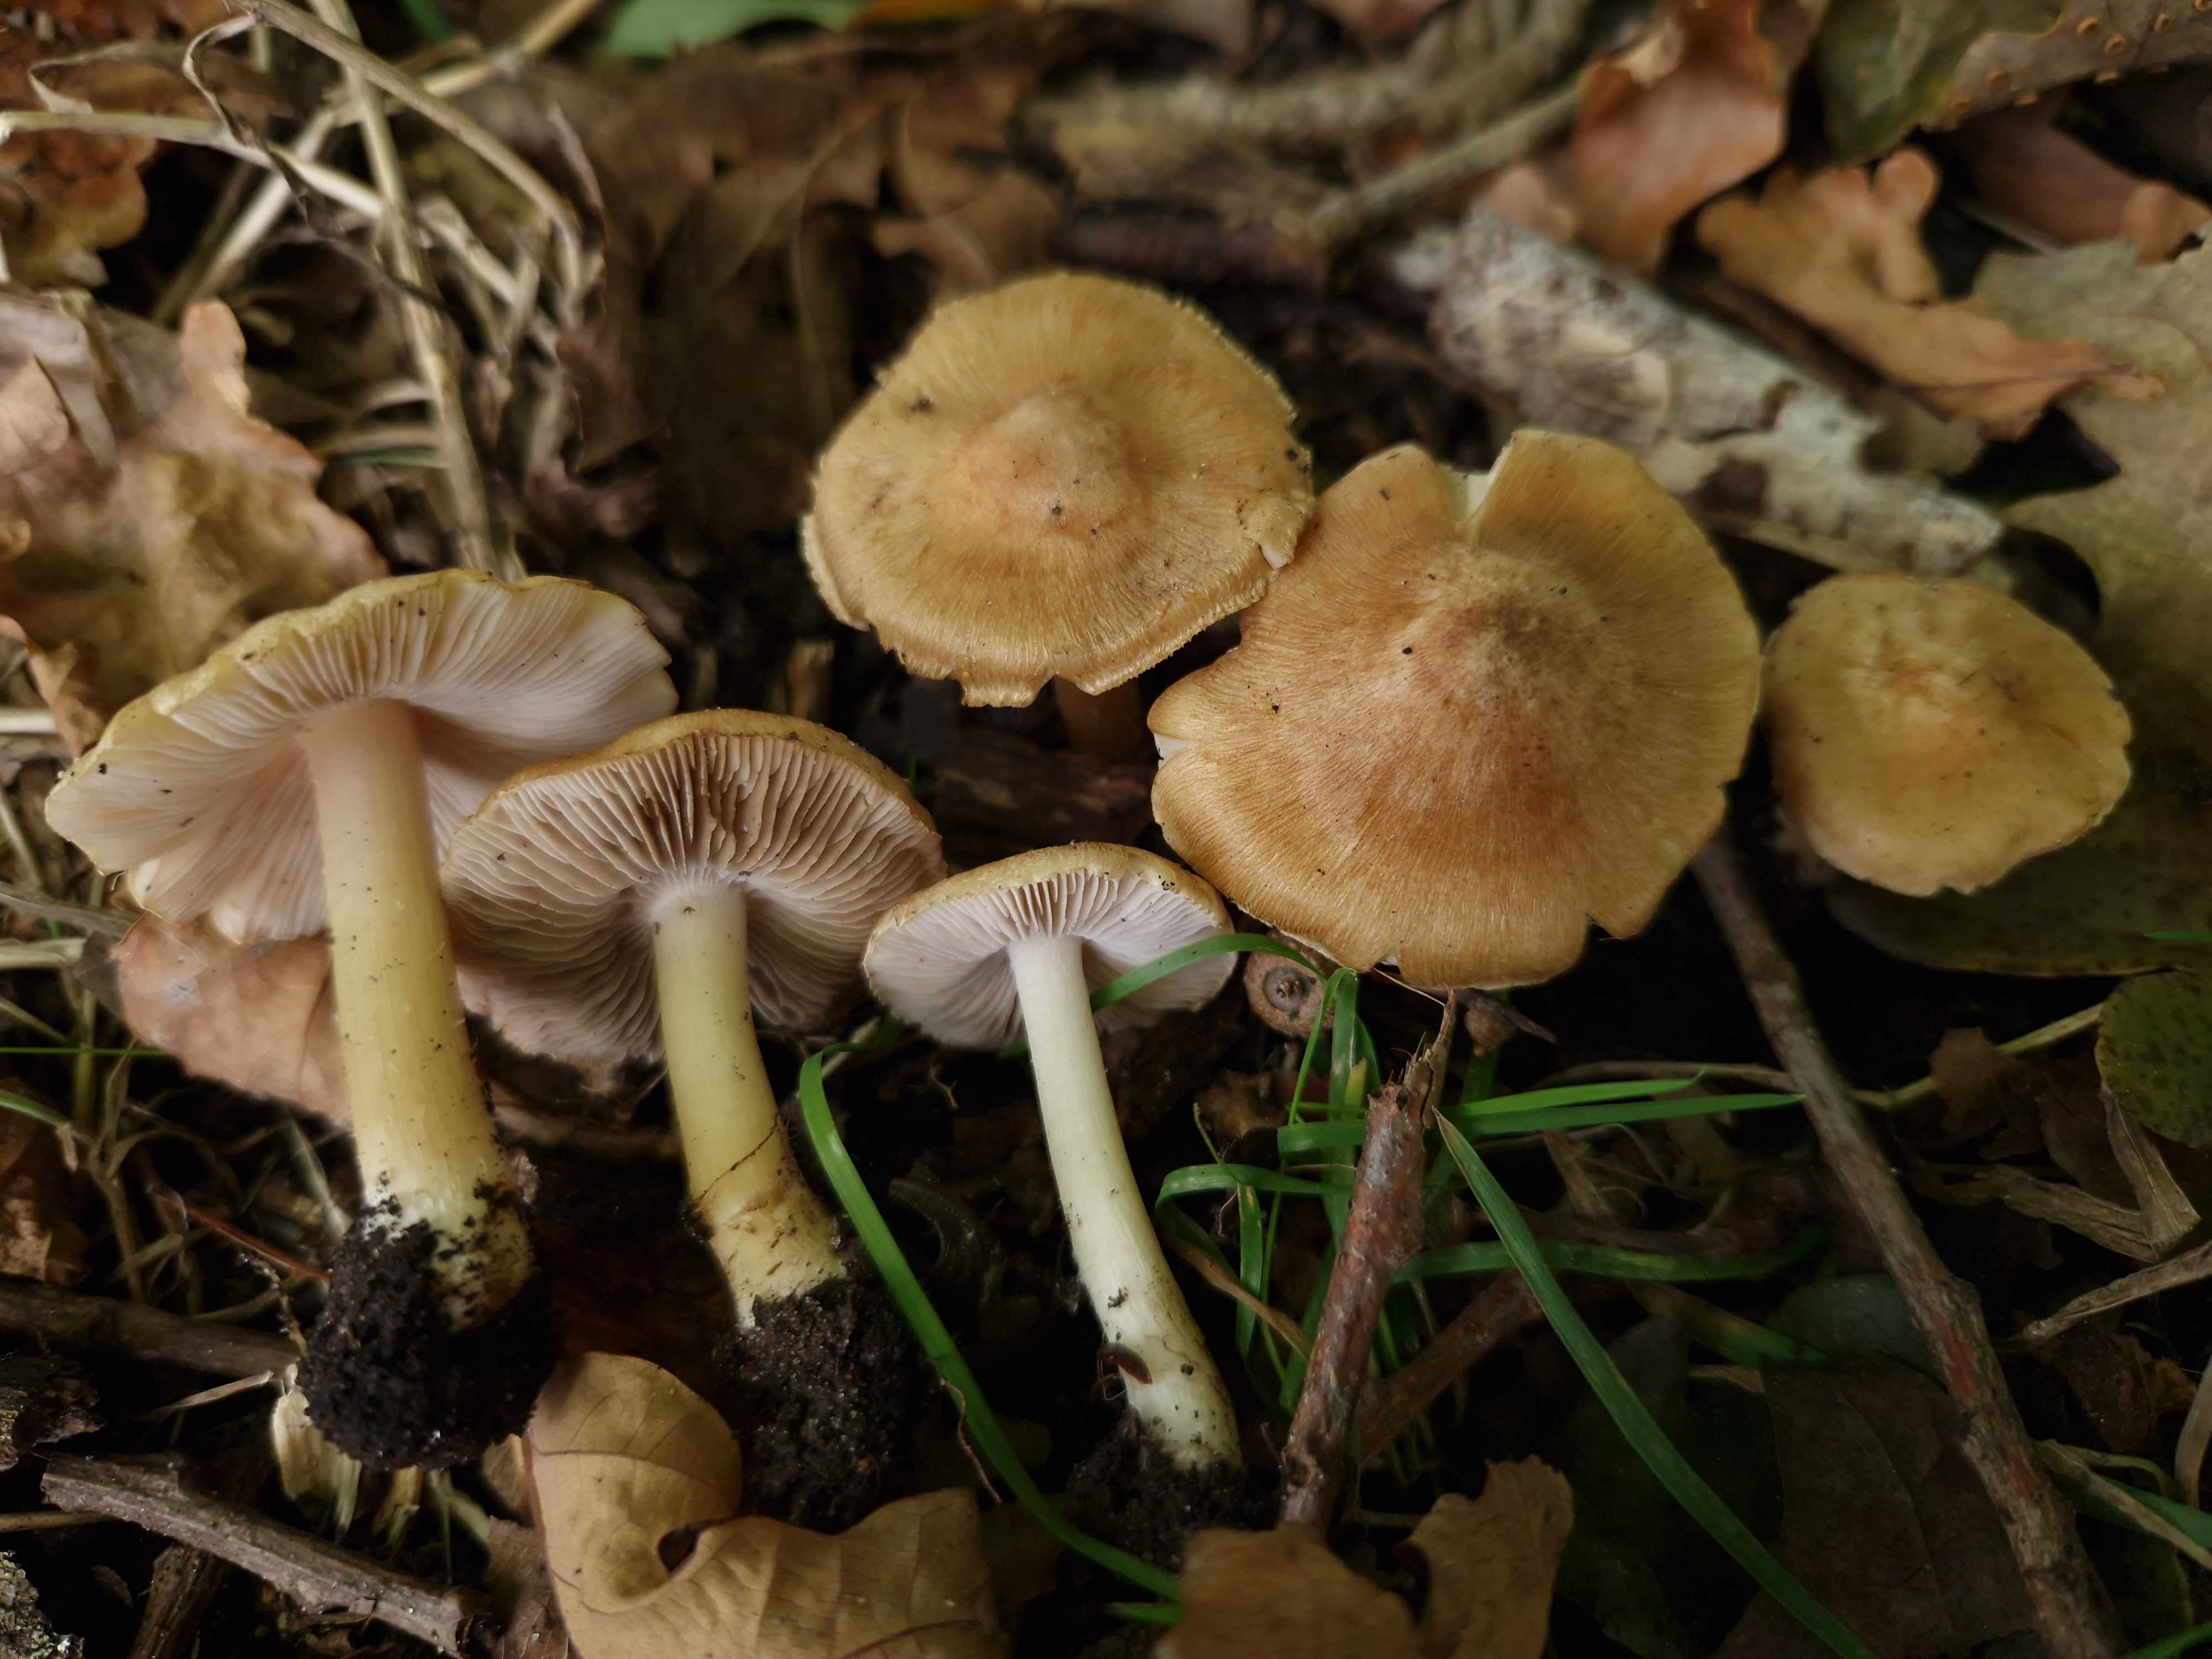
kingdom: Fungi
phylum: Basidiomycota
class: Agaricomycetes
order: Agaricales
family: Inocybaceae
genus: Inocybe
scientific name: Inocybe
